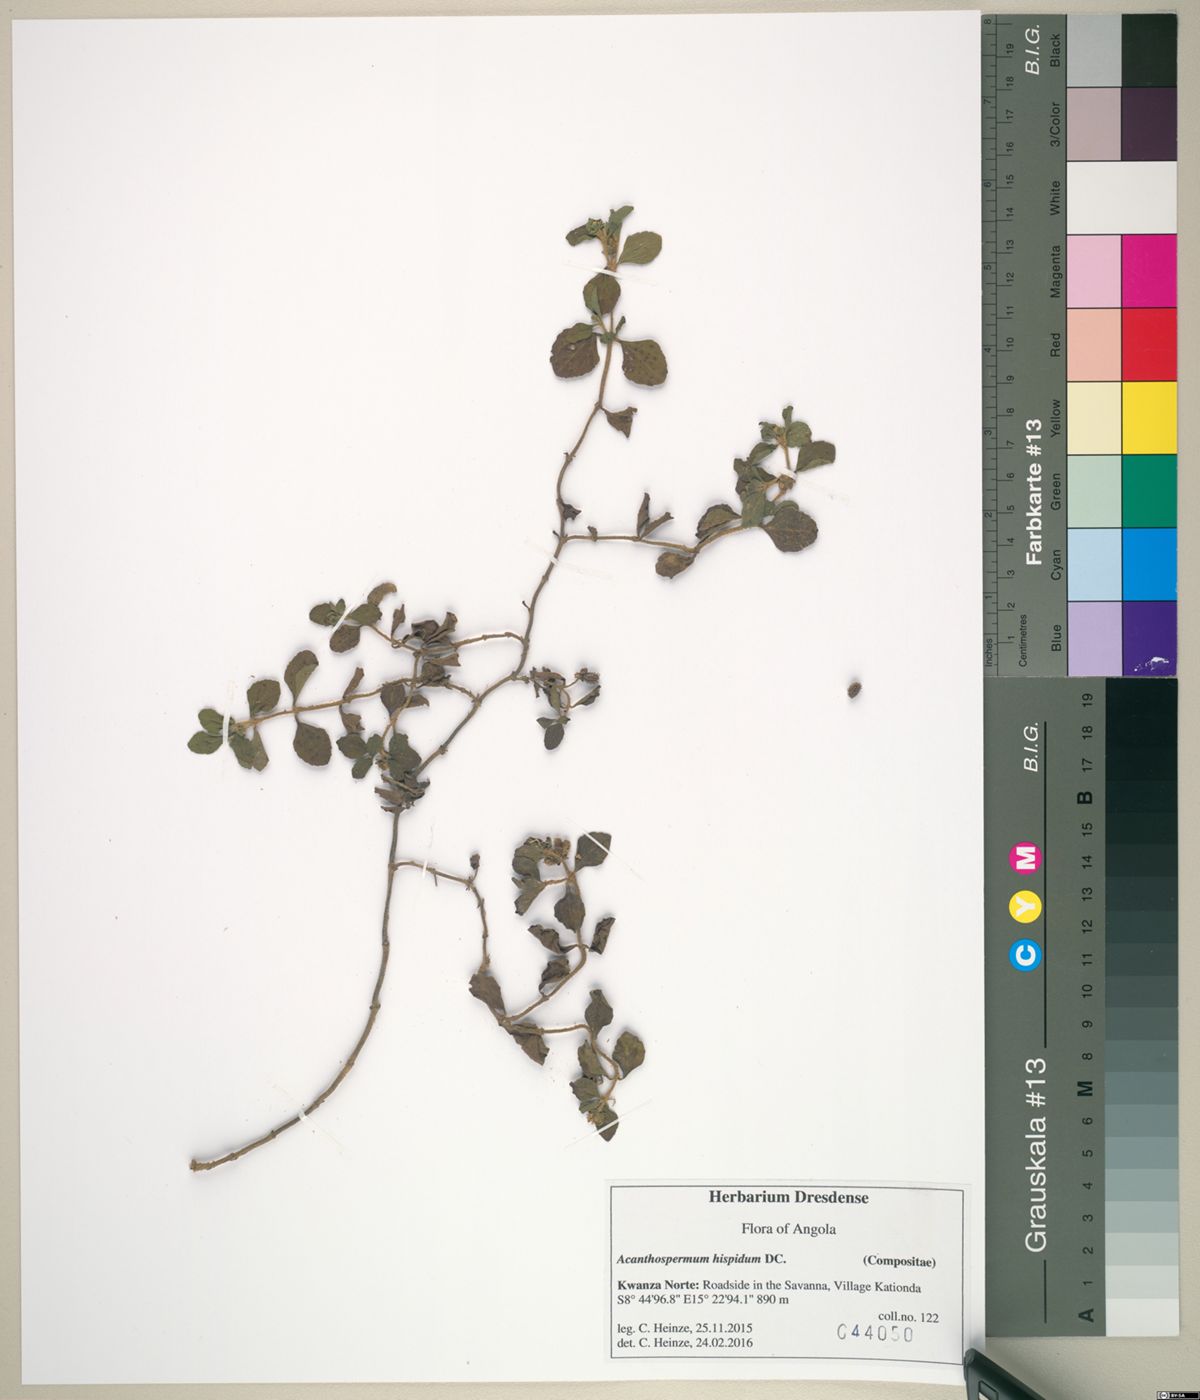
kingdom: Plantae
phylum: Tracheophyta
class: Magnoliopsida
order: Asterales
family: Asteraceae
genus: Acanthospermum
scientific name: Acanthospermum hispidum
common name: Hispid starbur
